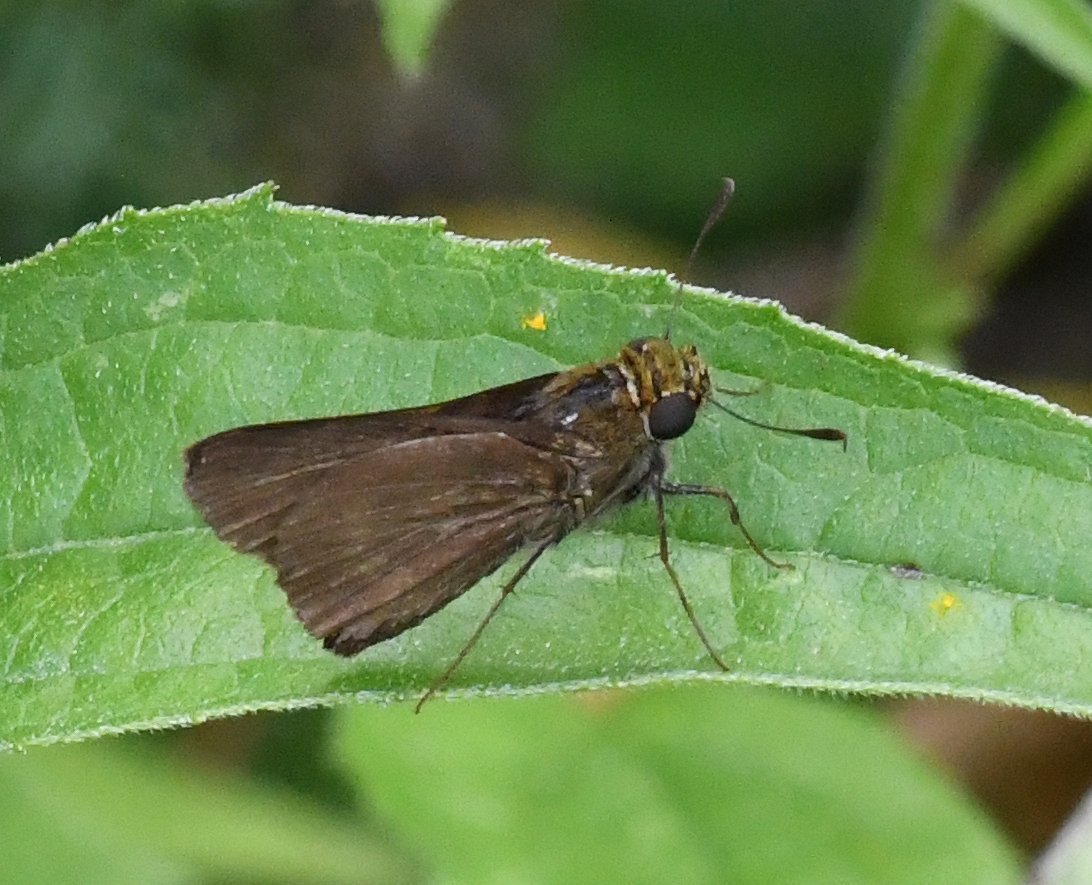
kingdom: Animalia
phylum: Arthropoda
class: Insecta
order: Lepidoptera
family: Hesperiidae
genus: Euphyes
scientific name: Euphyes vestris
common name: Dun Skipper
